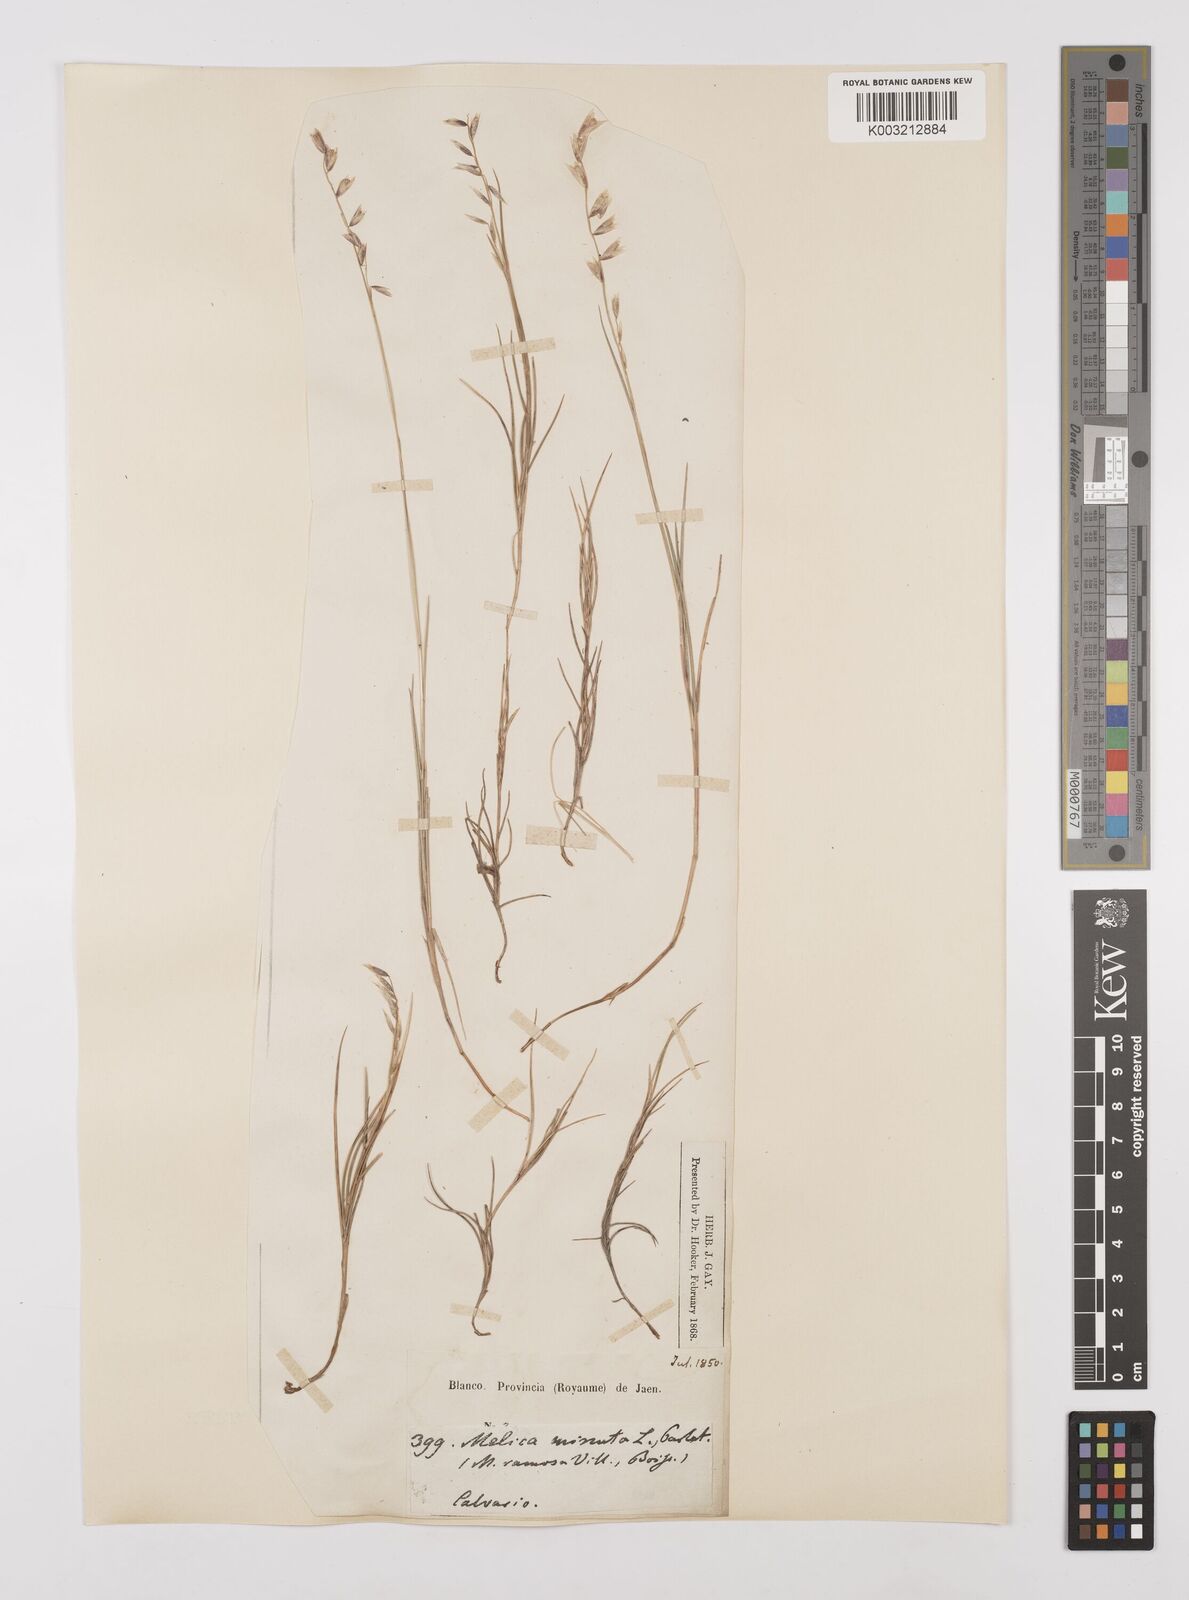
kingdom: Plantae
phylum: Tracheophyta
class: Liliopsida
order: Poales
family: Poaceae
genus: Melica
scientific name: Melica minuta
